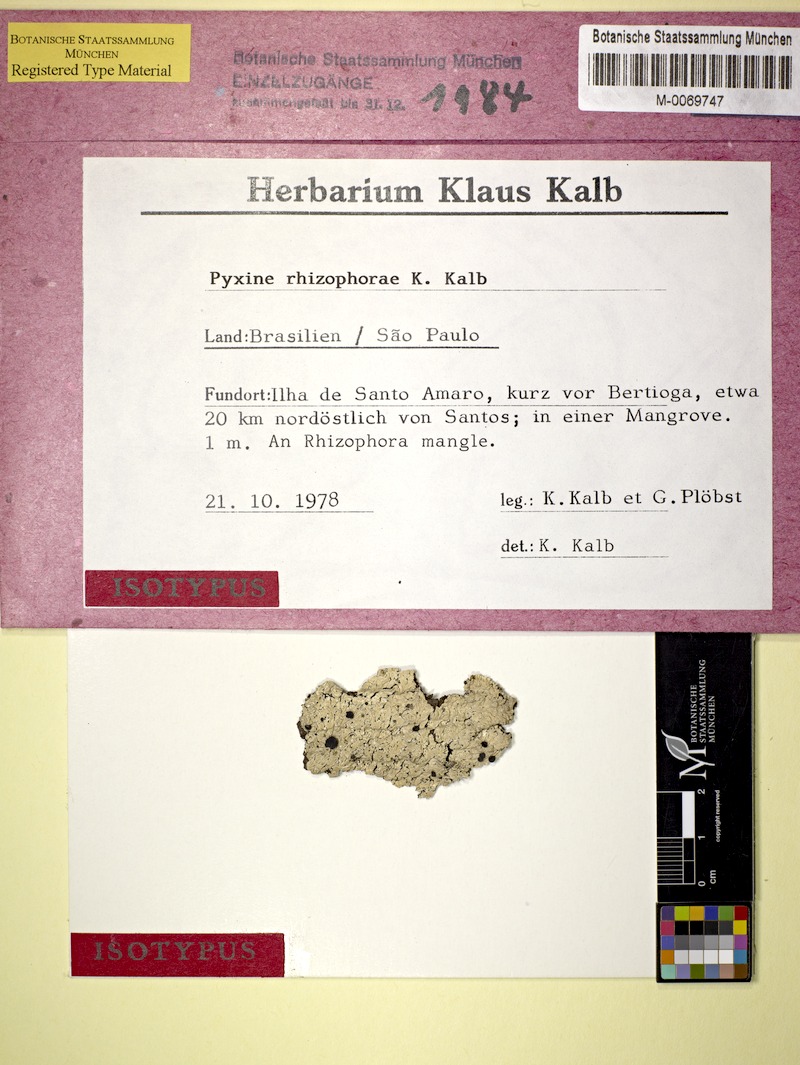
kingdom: Fungi
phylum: Ascomycota
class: Lecanoromycetes
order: Caliciales
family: Caliciaceae
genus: Pyxine
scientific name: Pyxine rhizophorae
